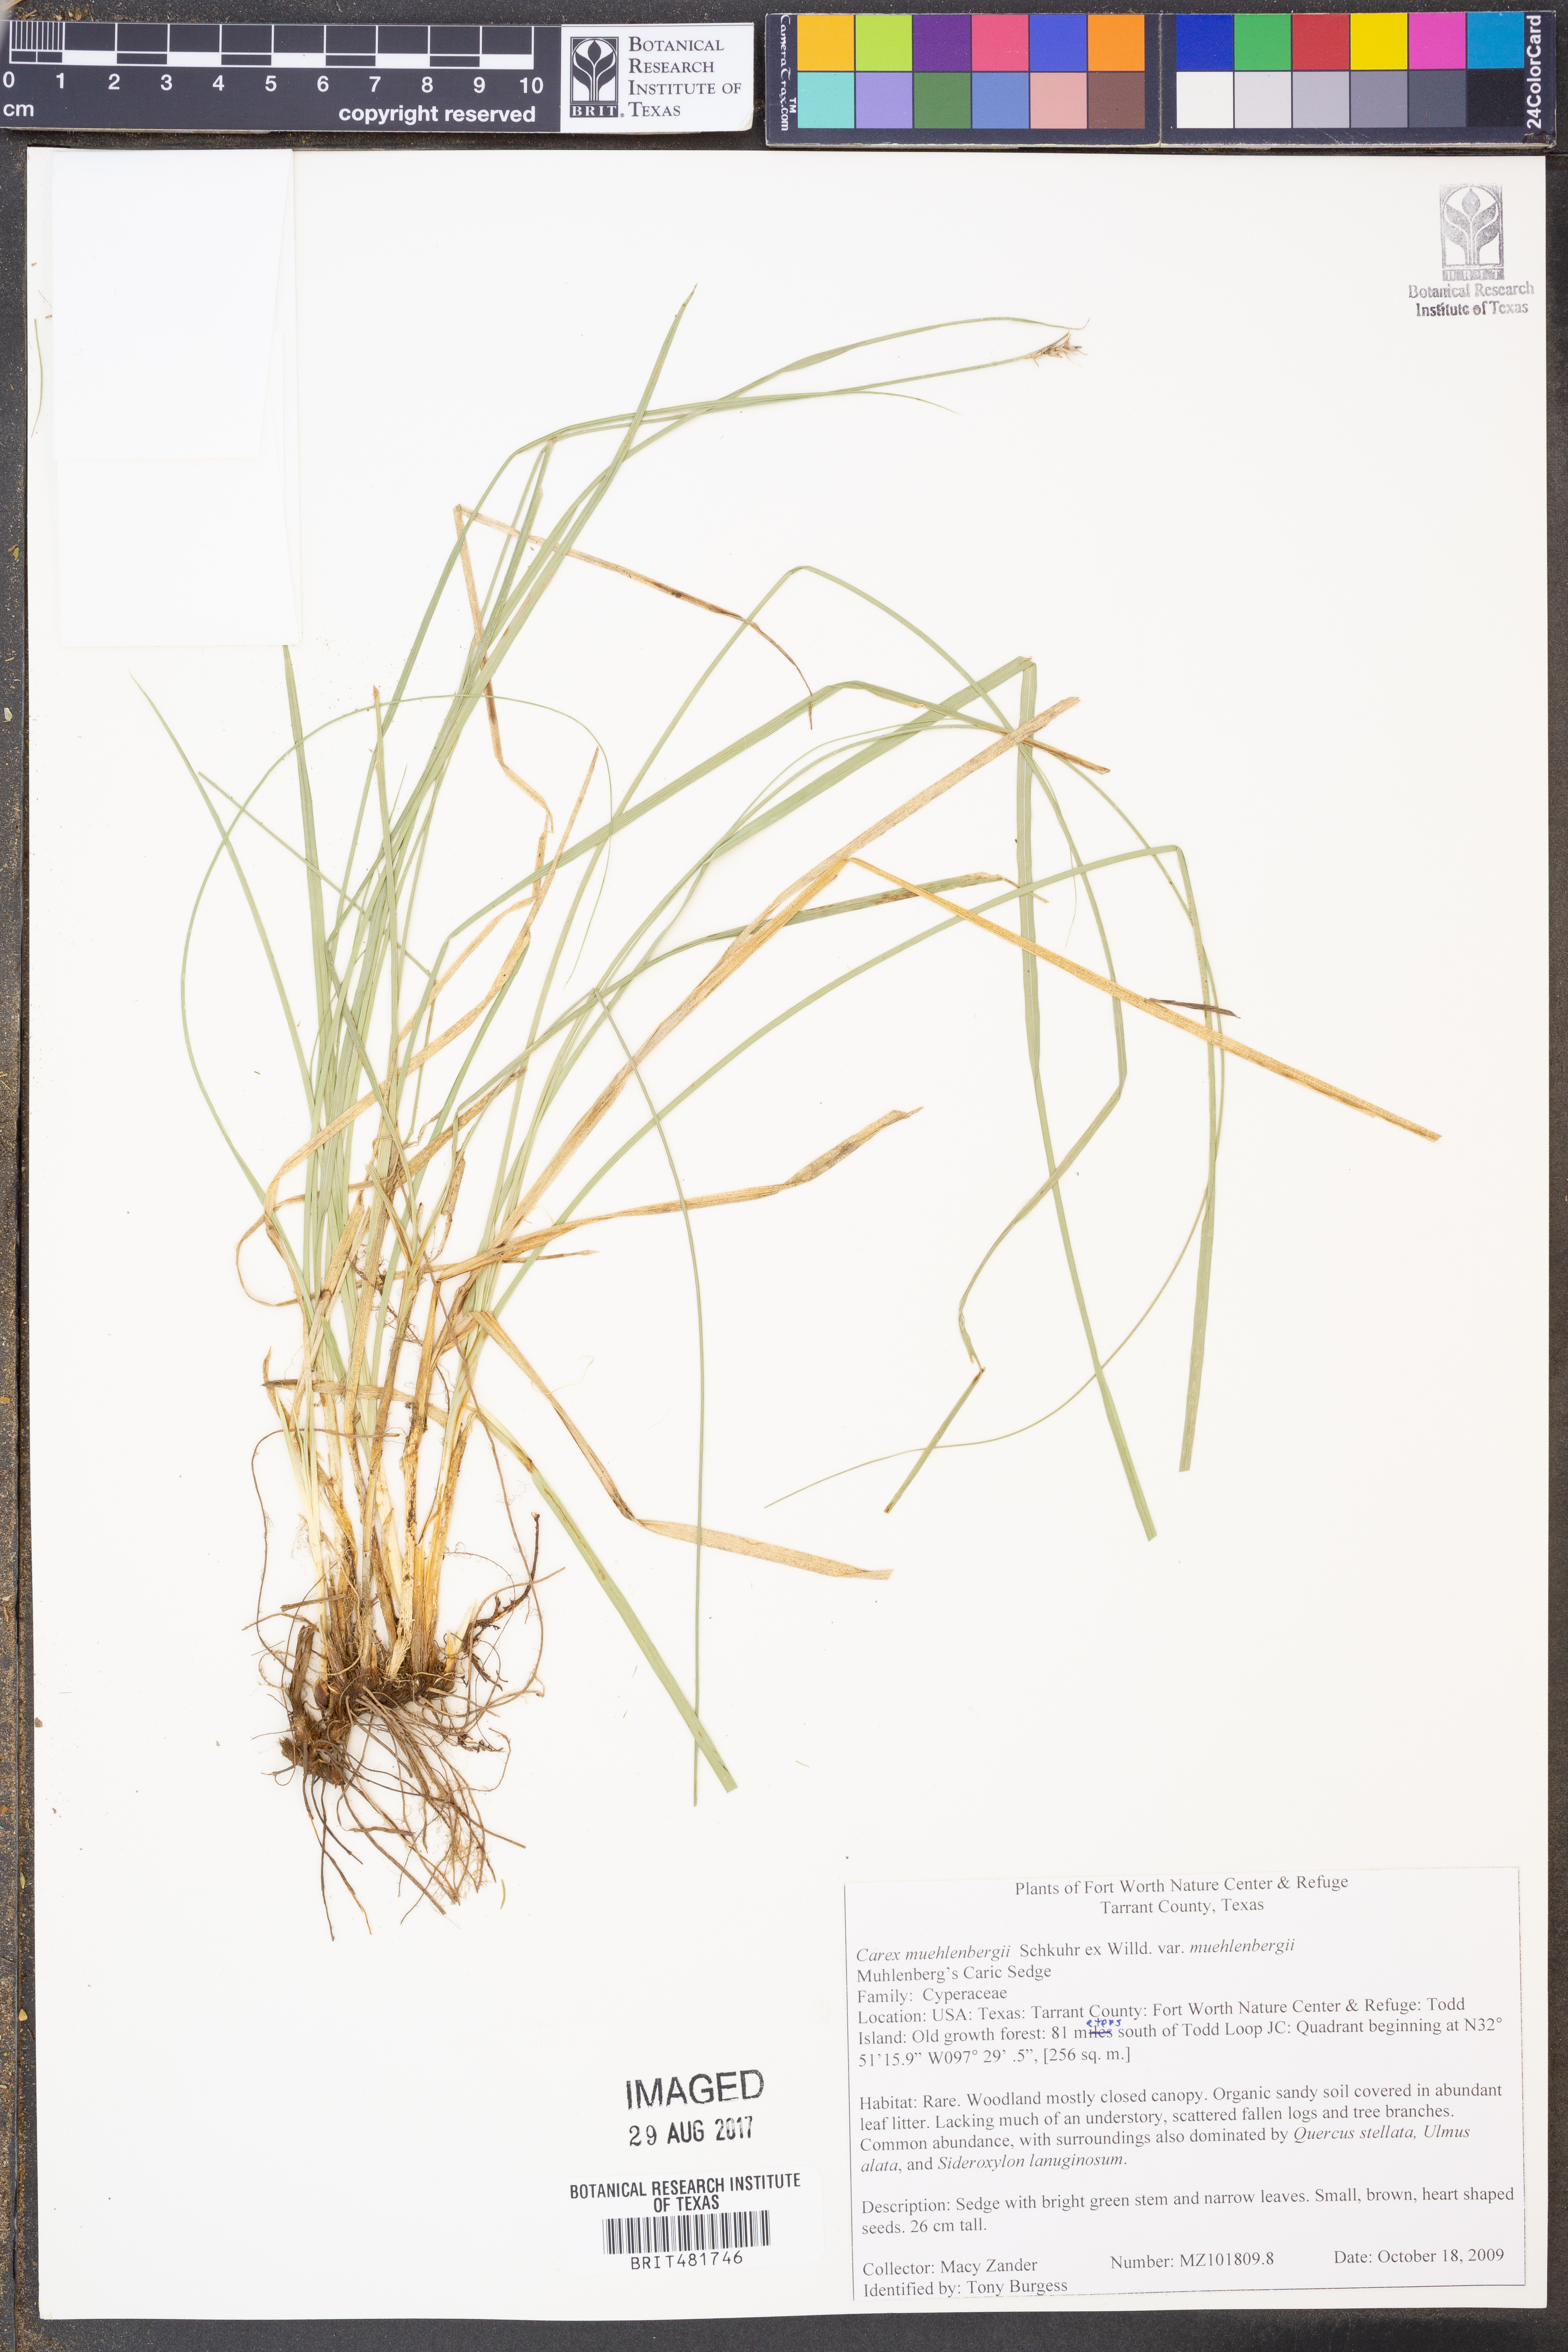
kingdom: Plantae
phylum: Tracheophyta
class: Liliopsida
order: Poales
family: Cyperaceae
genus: Carex
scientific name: Carex muehlenbergii
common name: Muhlenberg's bracted sedge
